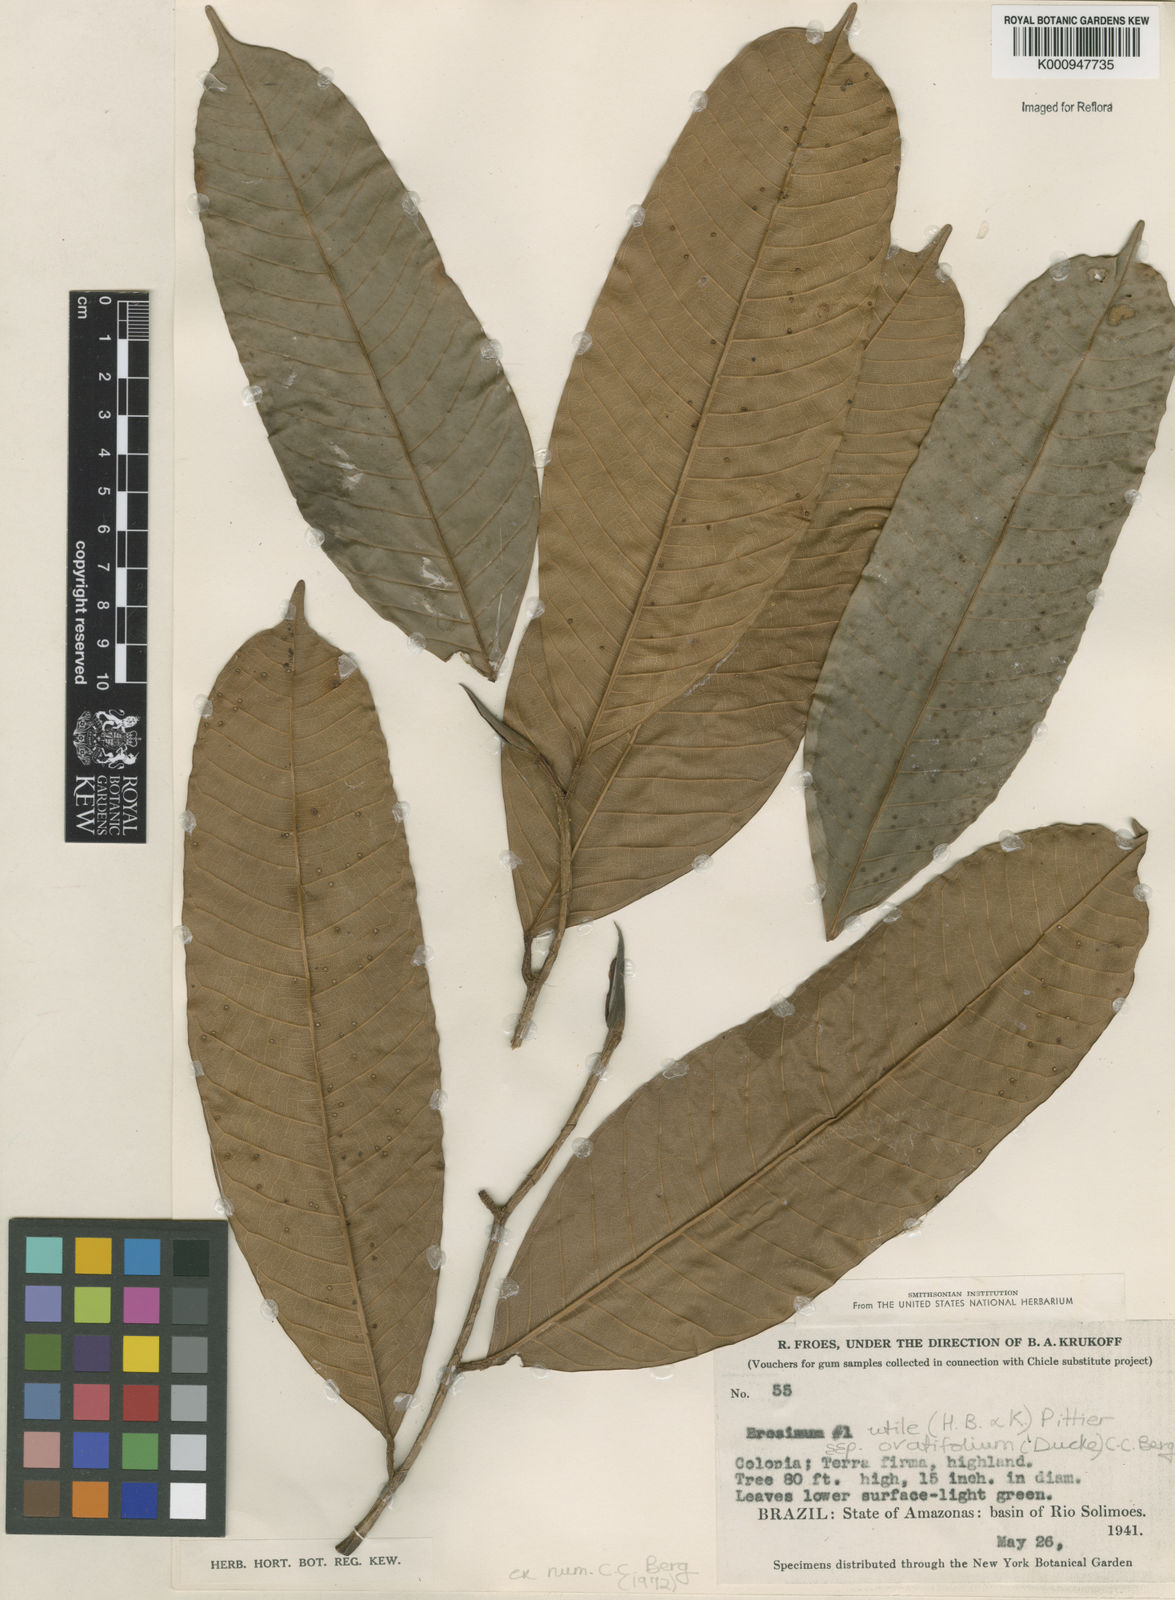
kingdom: Plantae
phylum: Tracheophyta
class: Magnoliopsida
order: Rosales
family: Moraceae
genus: Brosimum
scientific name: Brosimum utile
